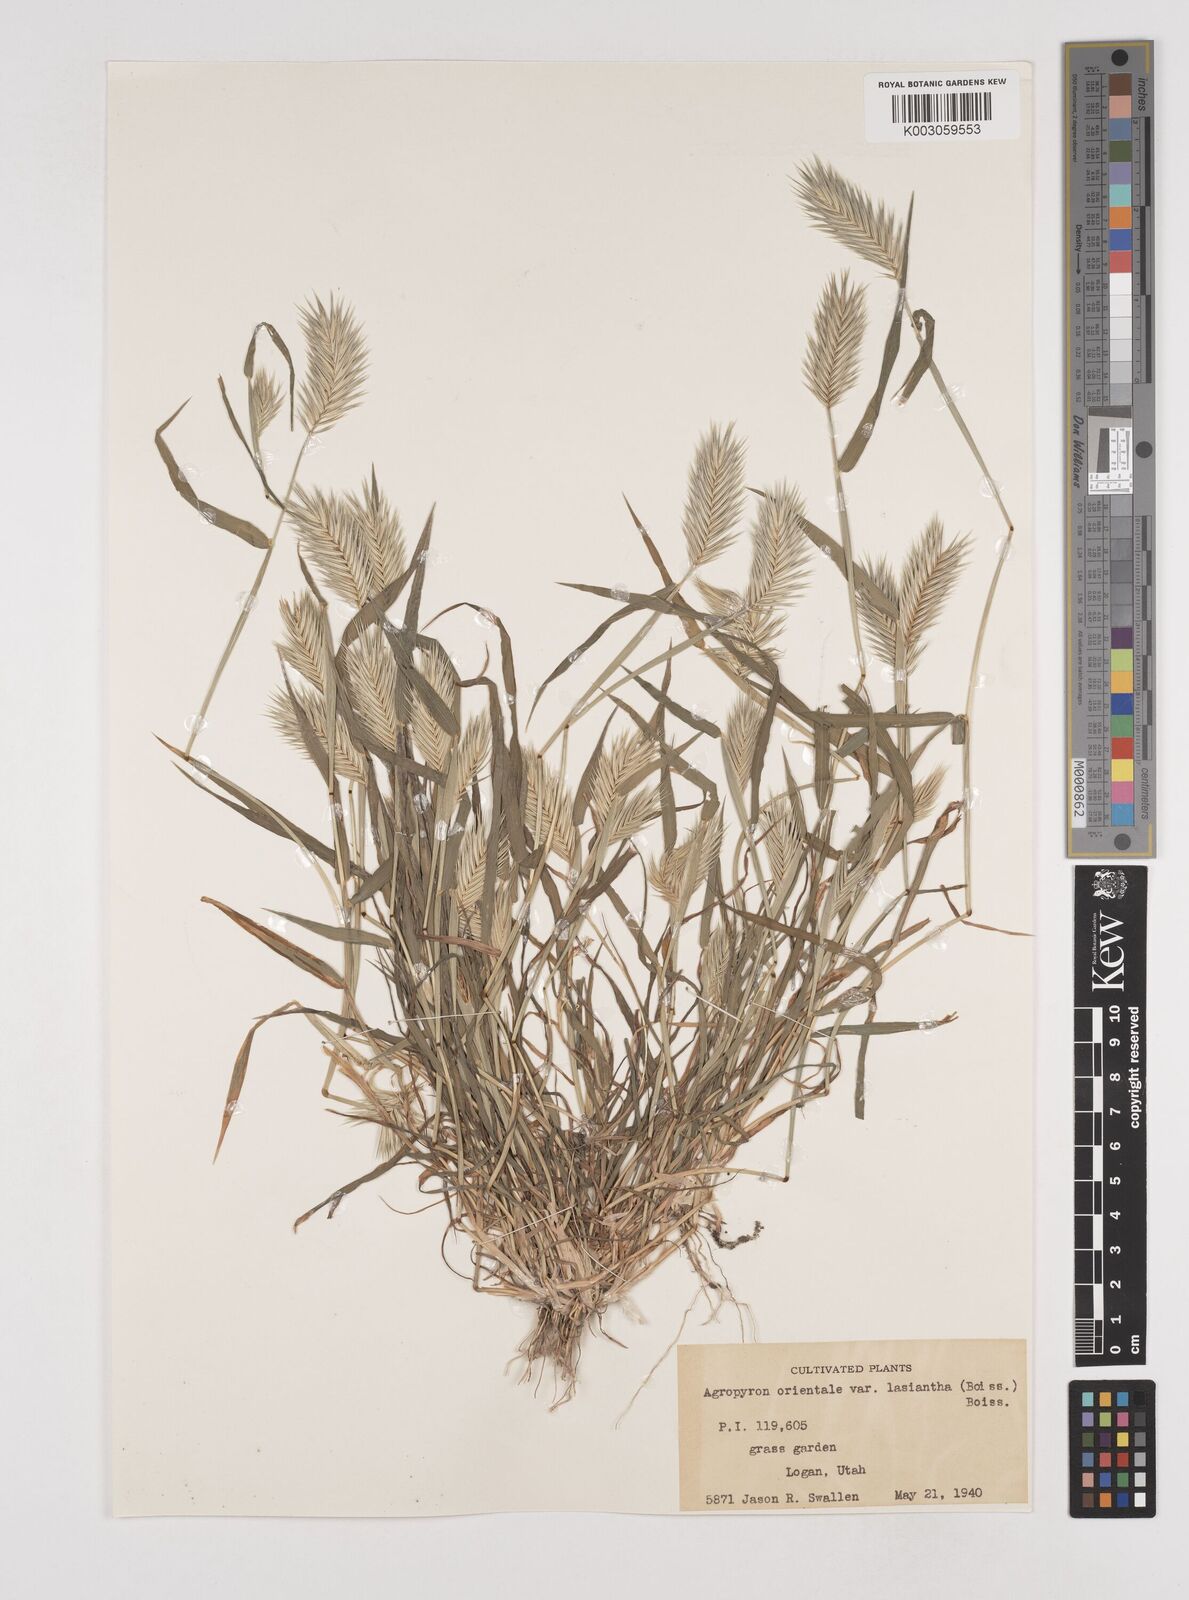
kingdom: Plantae
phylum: Tracheophyta
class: Liliopsida
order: Poales
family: Poaceae
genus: Eremopyrum
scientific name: Eremopyrum orientale
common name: Oriental false wheatgrass
